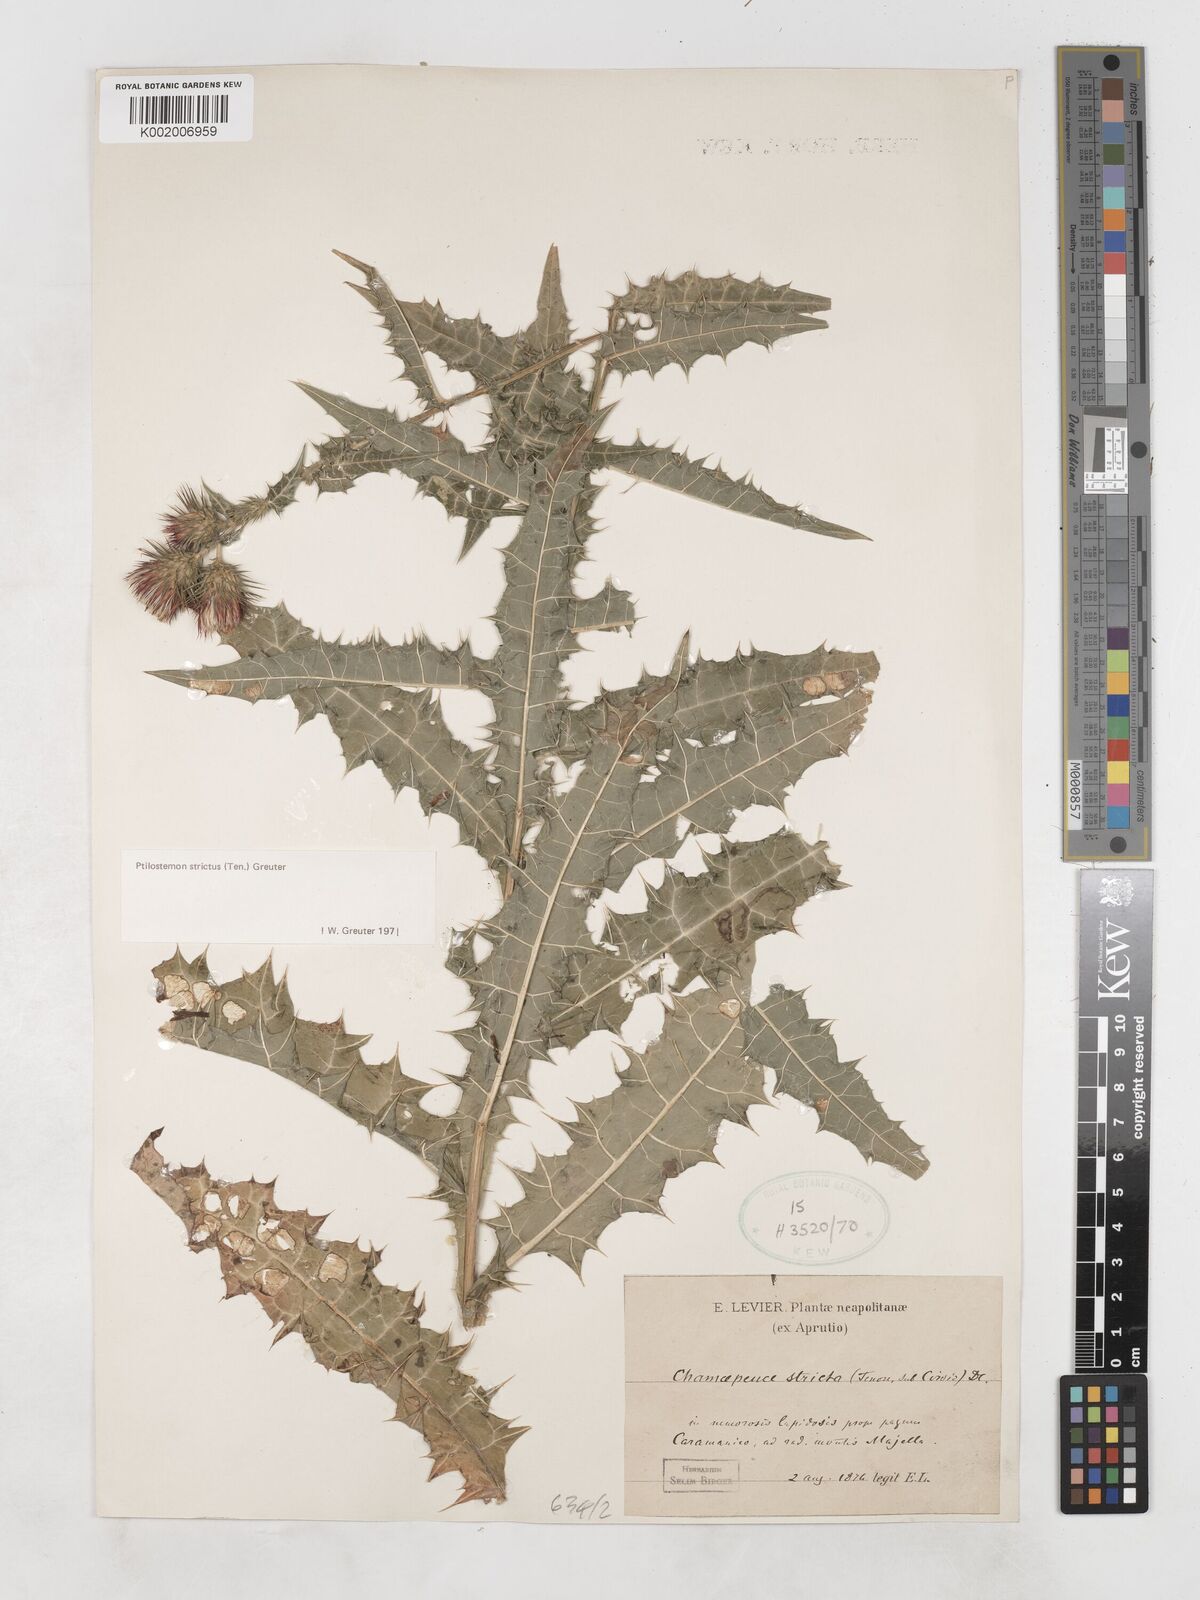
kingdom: Plantae
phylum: Tracheophyta
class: Magnoliopsida
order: Asterales
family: Asteraceae
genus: Ptilostemon
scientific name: Ptilostemon strictus
